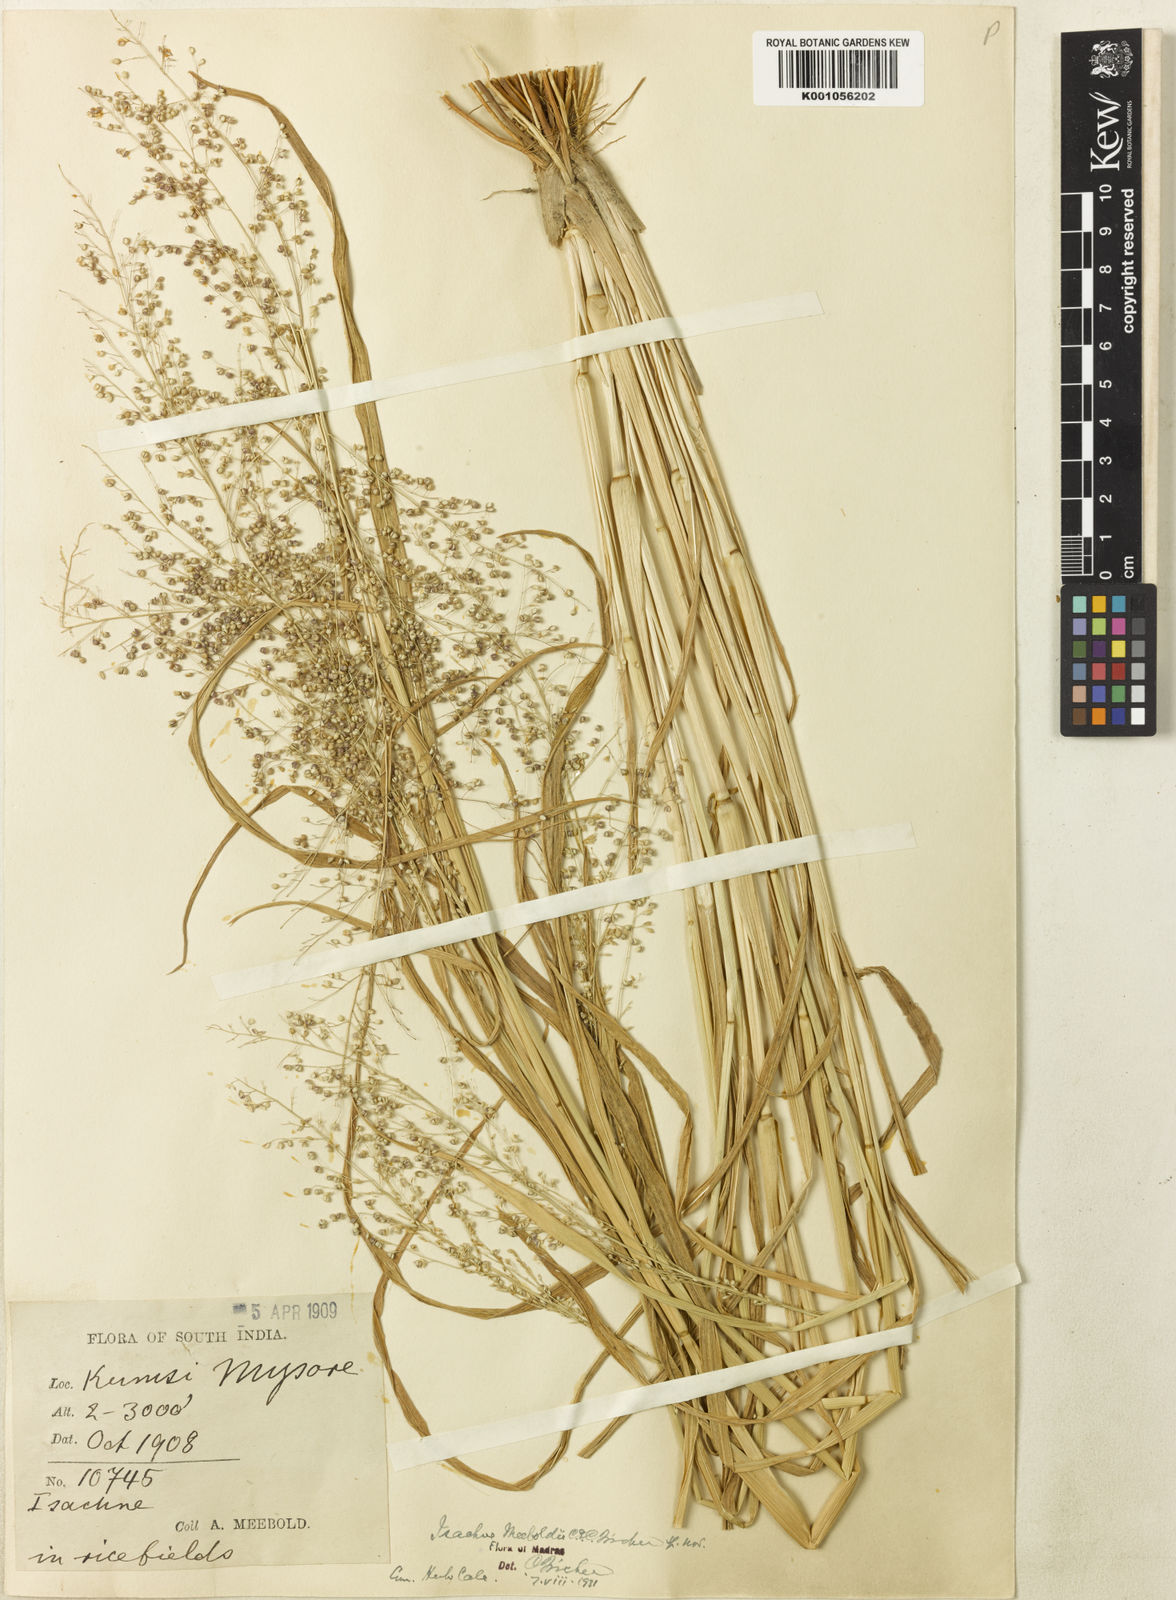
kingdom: Plantae
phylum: Tracheophyta
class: Liliopsida
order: Poales
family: Poaceae
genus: Isachne
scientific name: Isachne meeboldii
